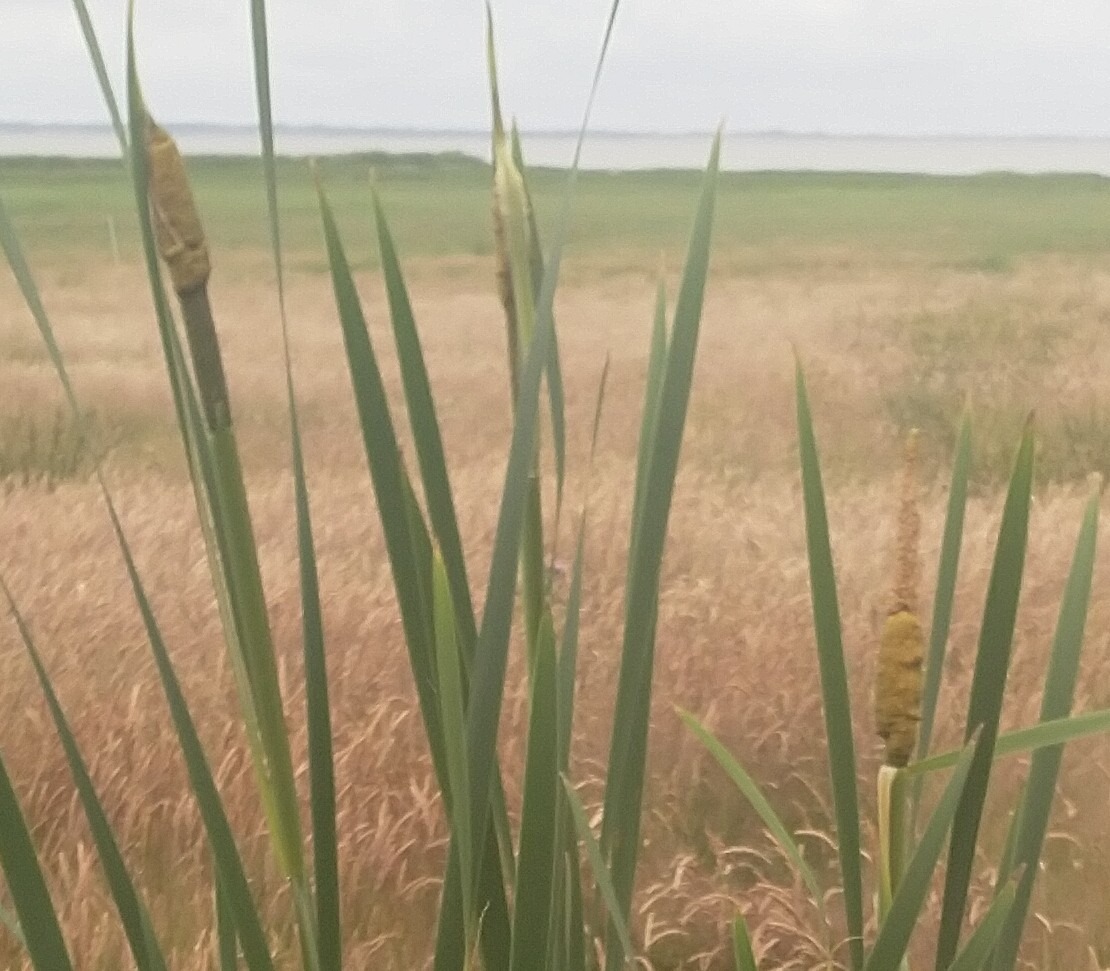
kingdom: Plantae
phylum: Tracheophyta
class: Liliopsida
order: Poales
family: Typhaceae
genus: Typha
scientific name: Typha latifolia
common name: Bredbladet dunhammer
